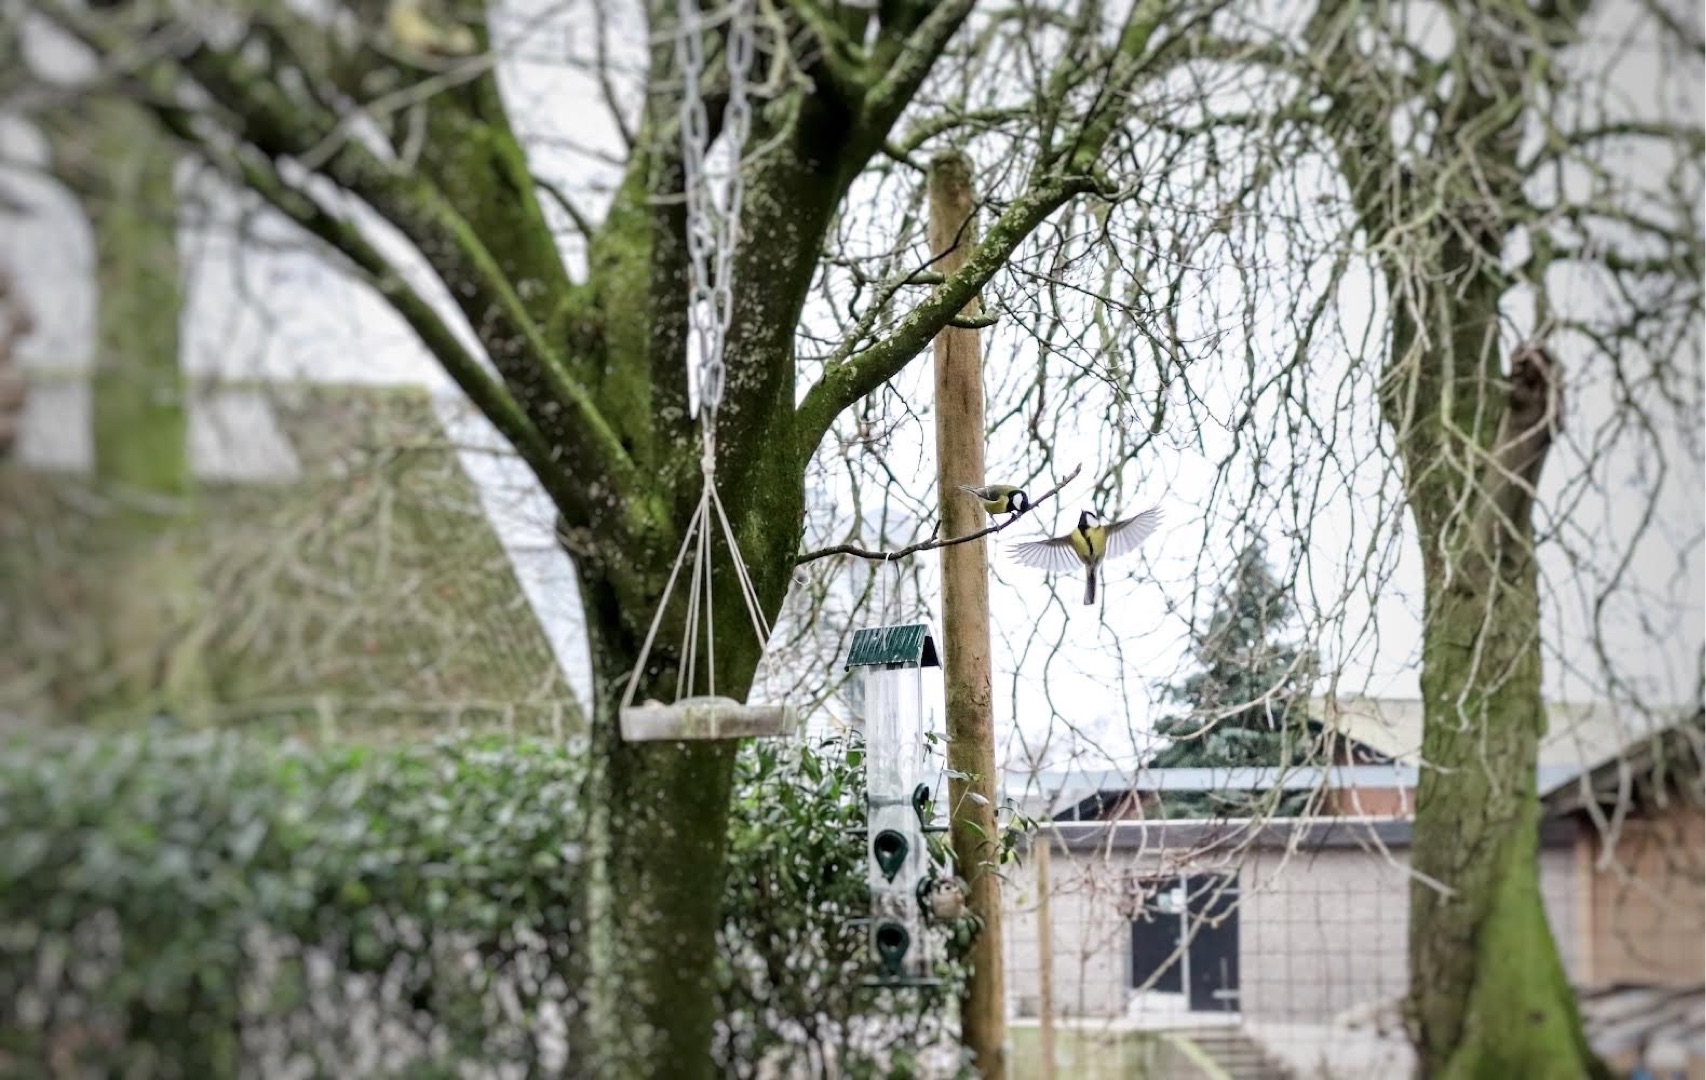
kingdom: Animalia
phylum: Chordata
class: Aves
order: Passeriformes
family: Paridae
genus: Parus
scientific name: Parus major
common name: Musvit
